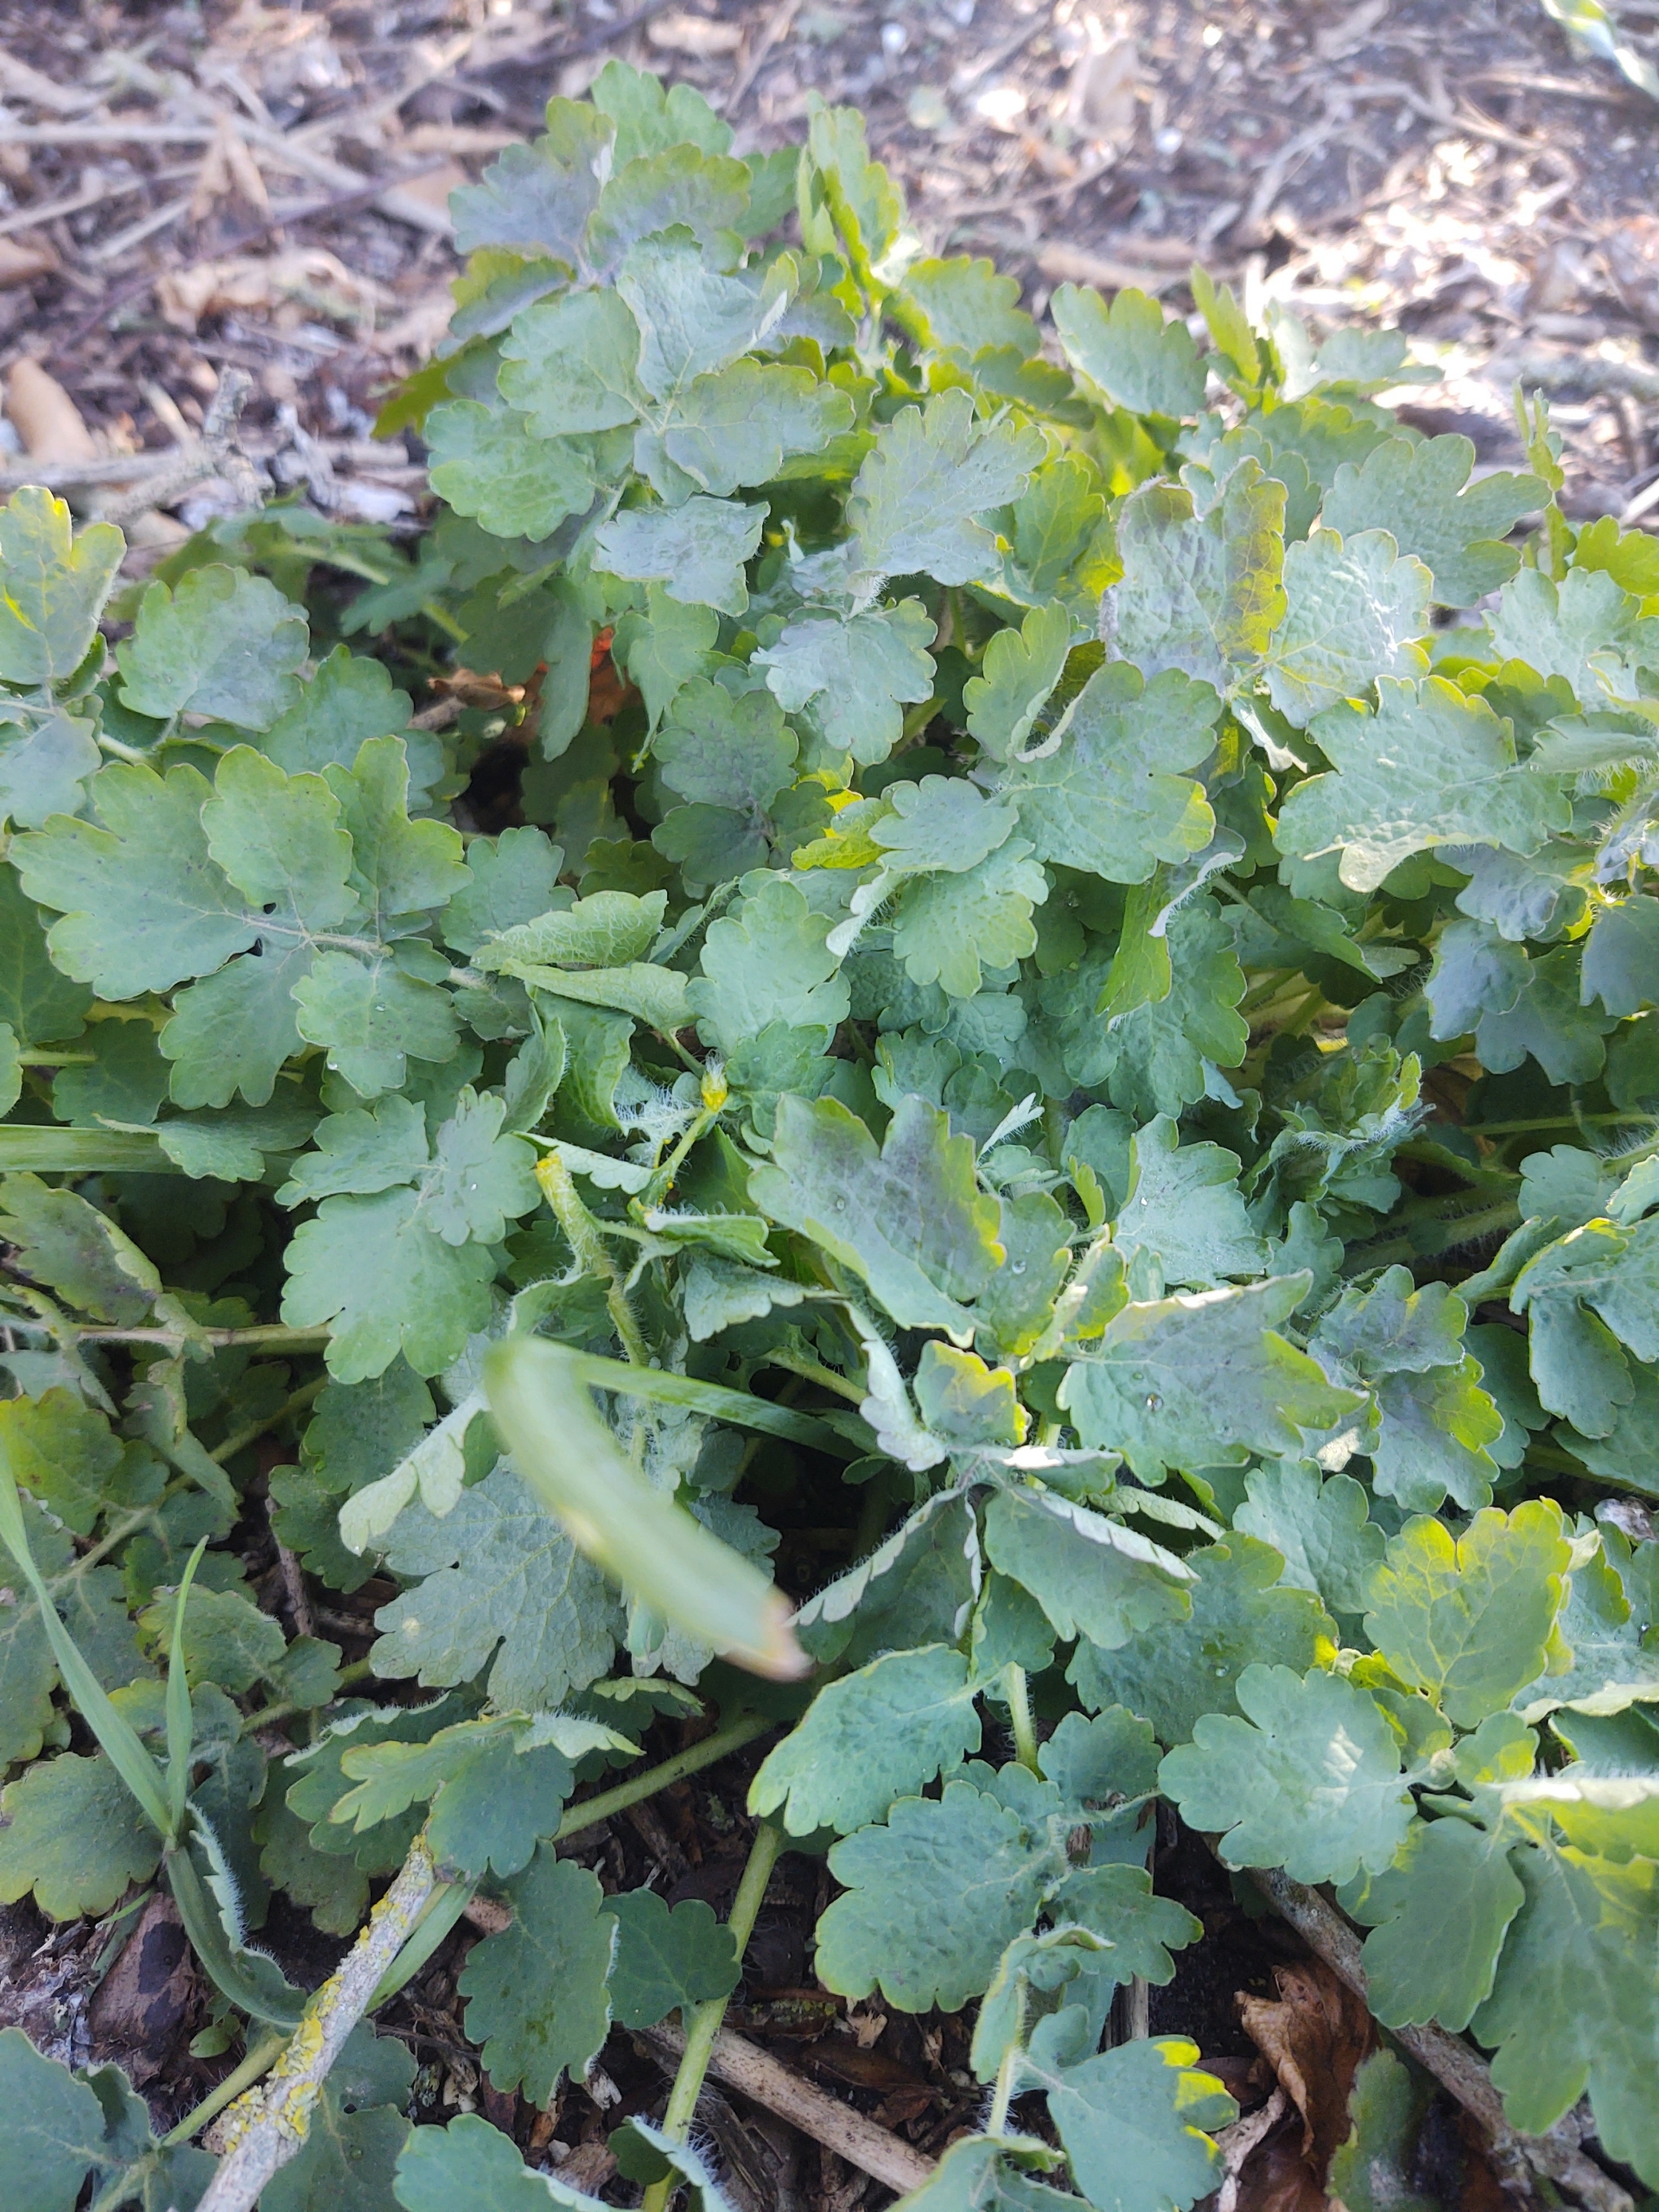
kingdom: Plantae
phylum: Tracheophyta
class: Magnoliopsida
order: Ranunculales
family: Papaveraceae
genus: Chelidonium
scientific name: Chelidonium majus
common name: Svaleurt
